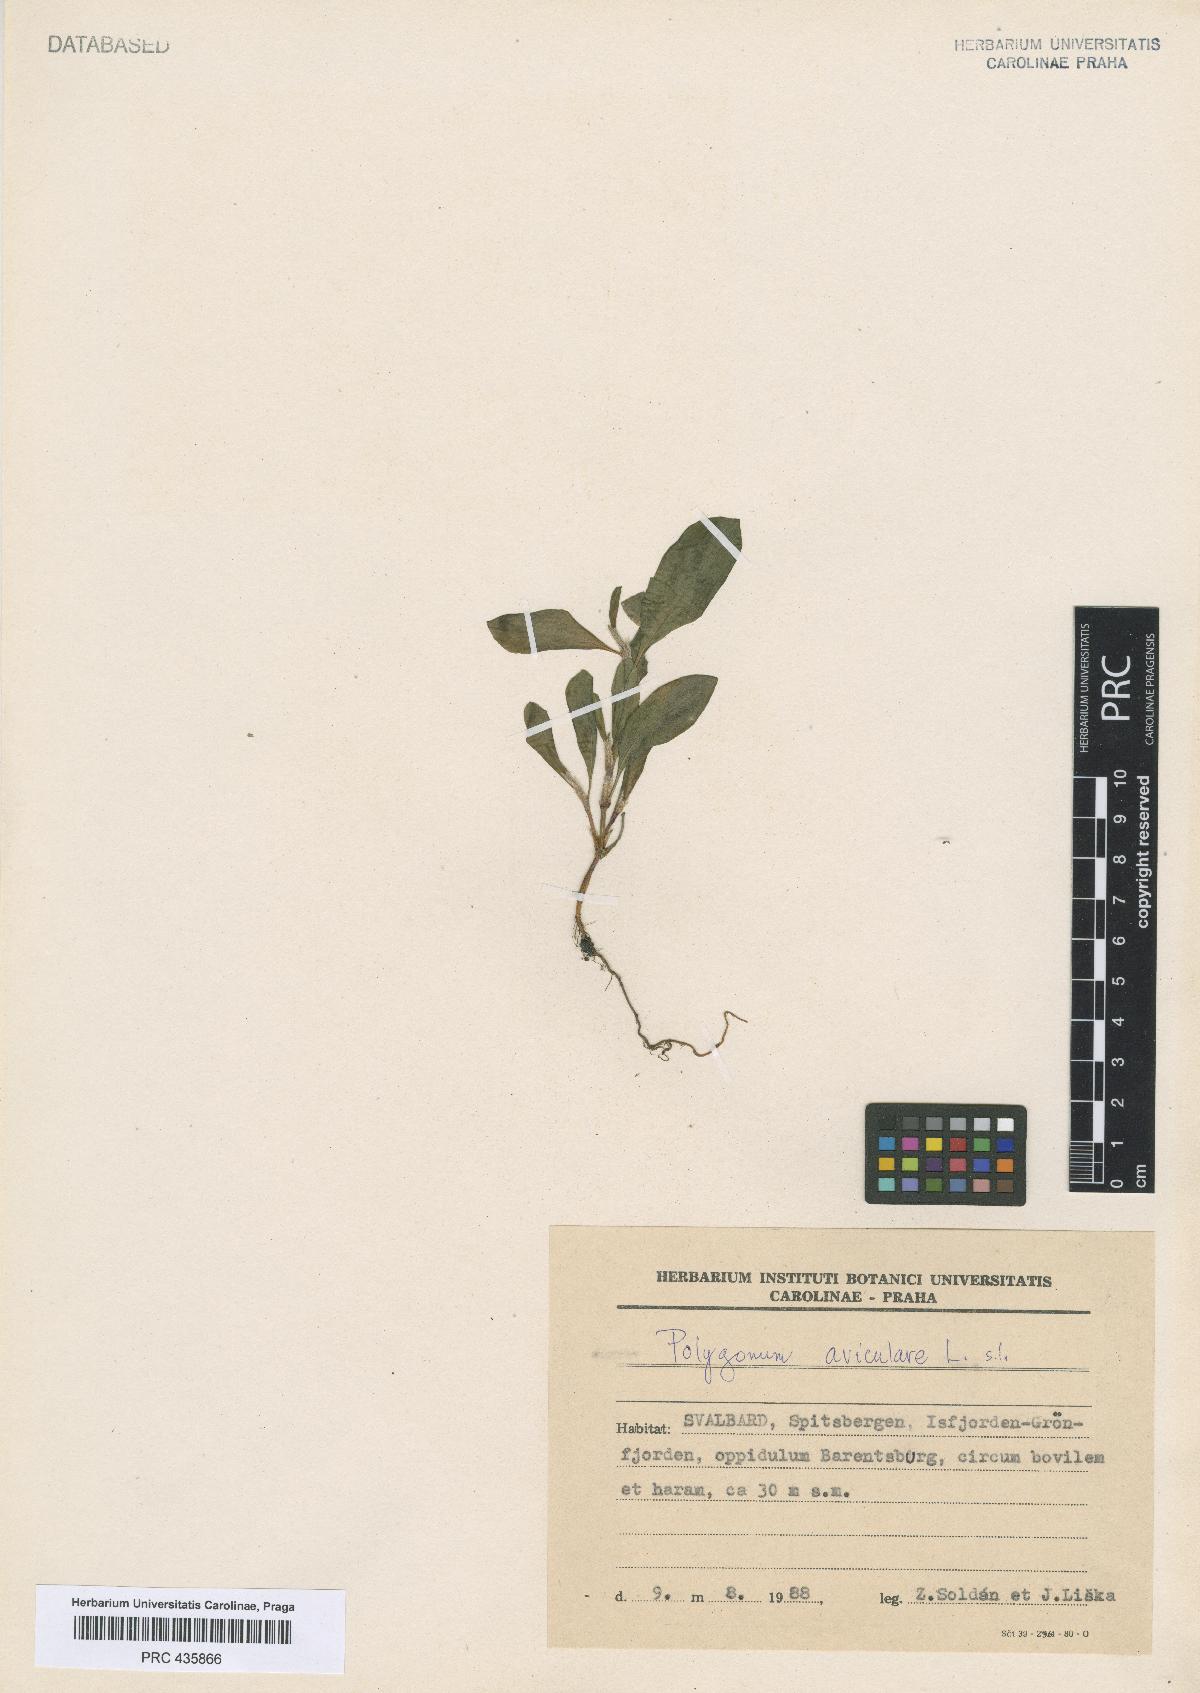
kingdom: Plantae
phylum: Tracheophyta
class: Magnoliopsida
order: Caryophyllales
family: Polygonaceae
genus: Polygonum
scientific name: Polygonum aviculare
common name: Prostrate knotweed
